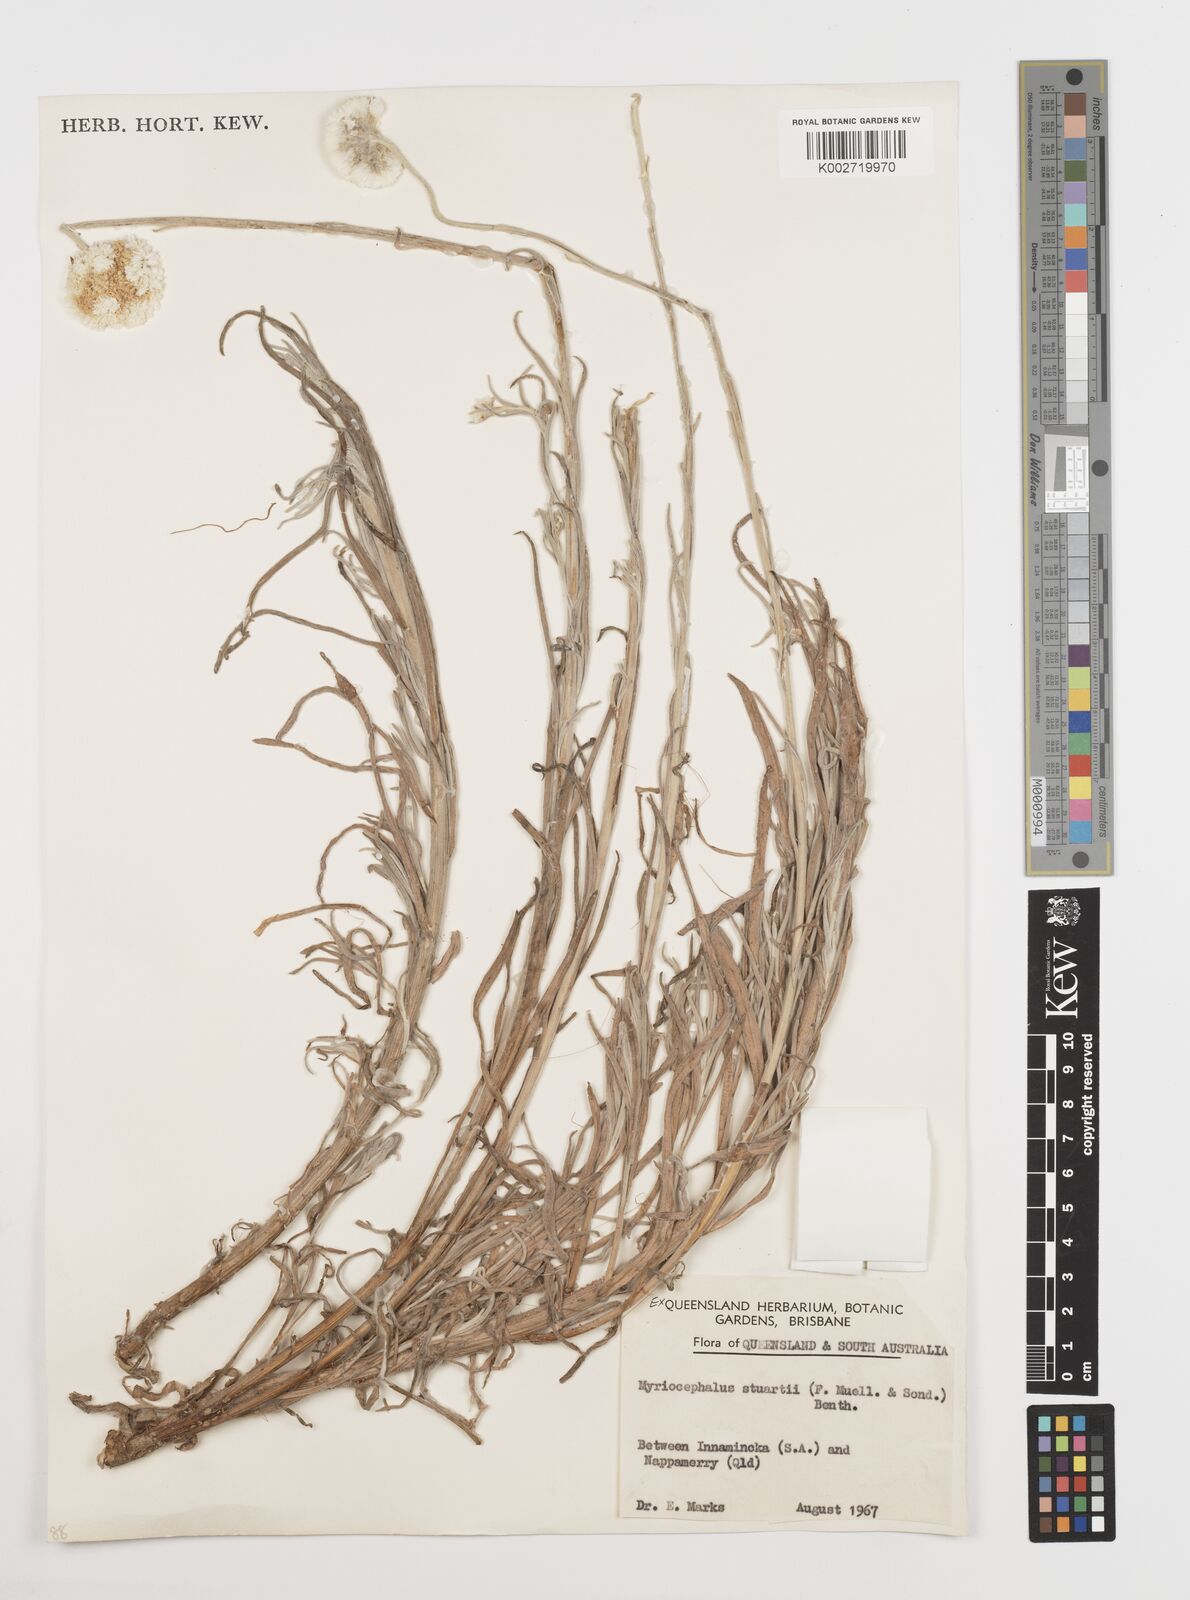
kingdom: Plantae
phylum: Tracheophyta
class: Magnoliopsida
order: Asterales
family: Asteraceae
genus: Polycalymma
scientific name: Polycalymma stuartii
